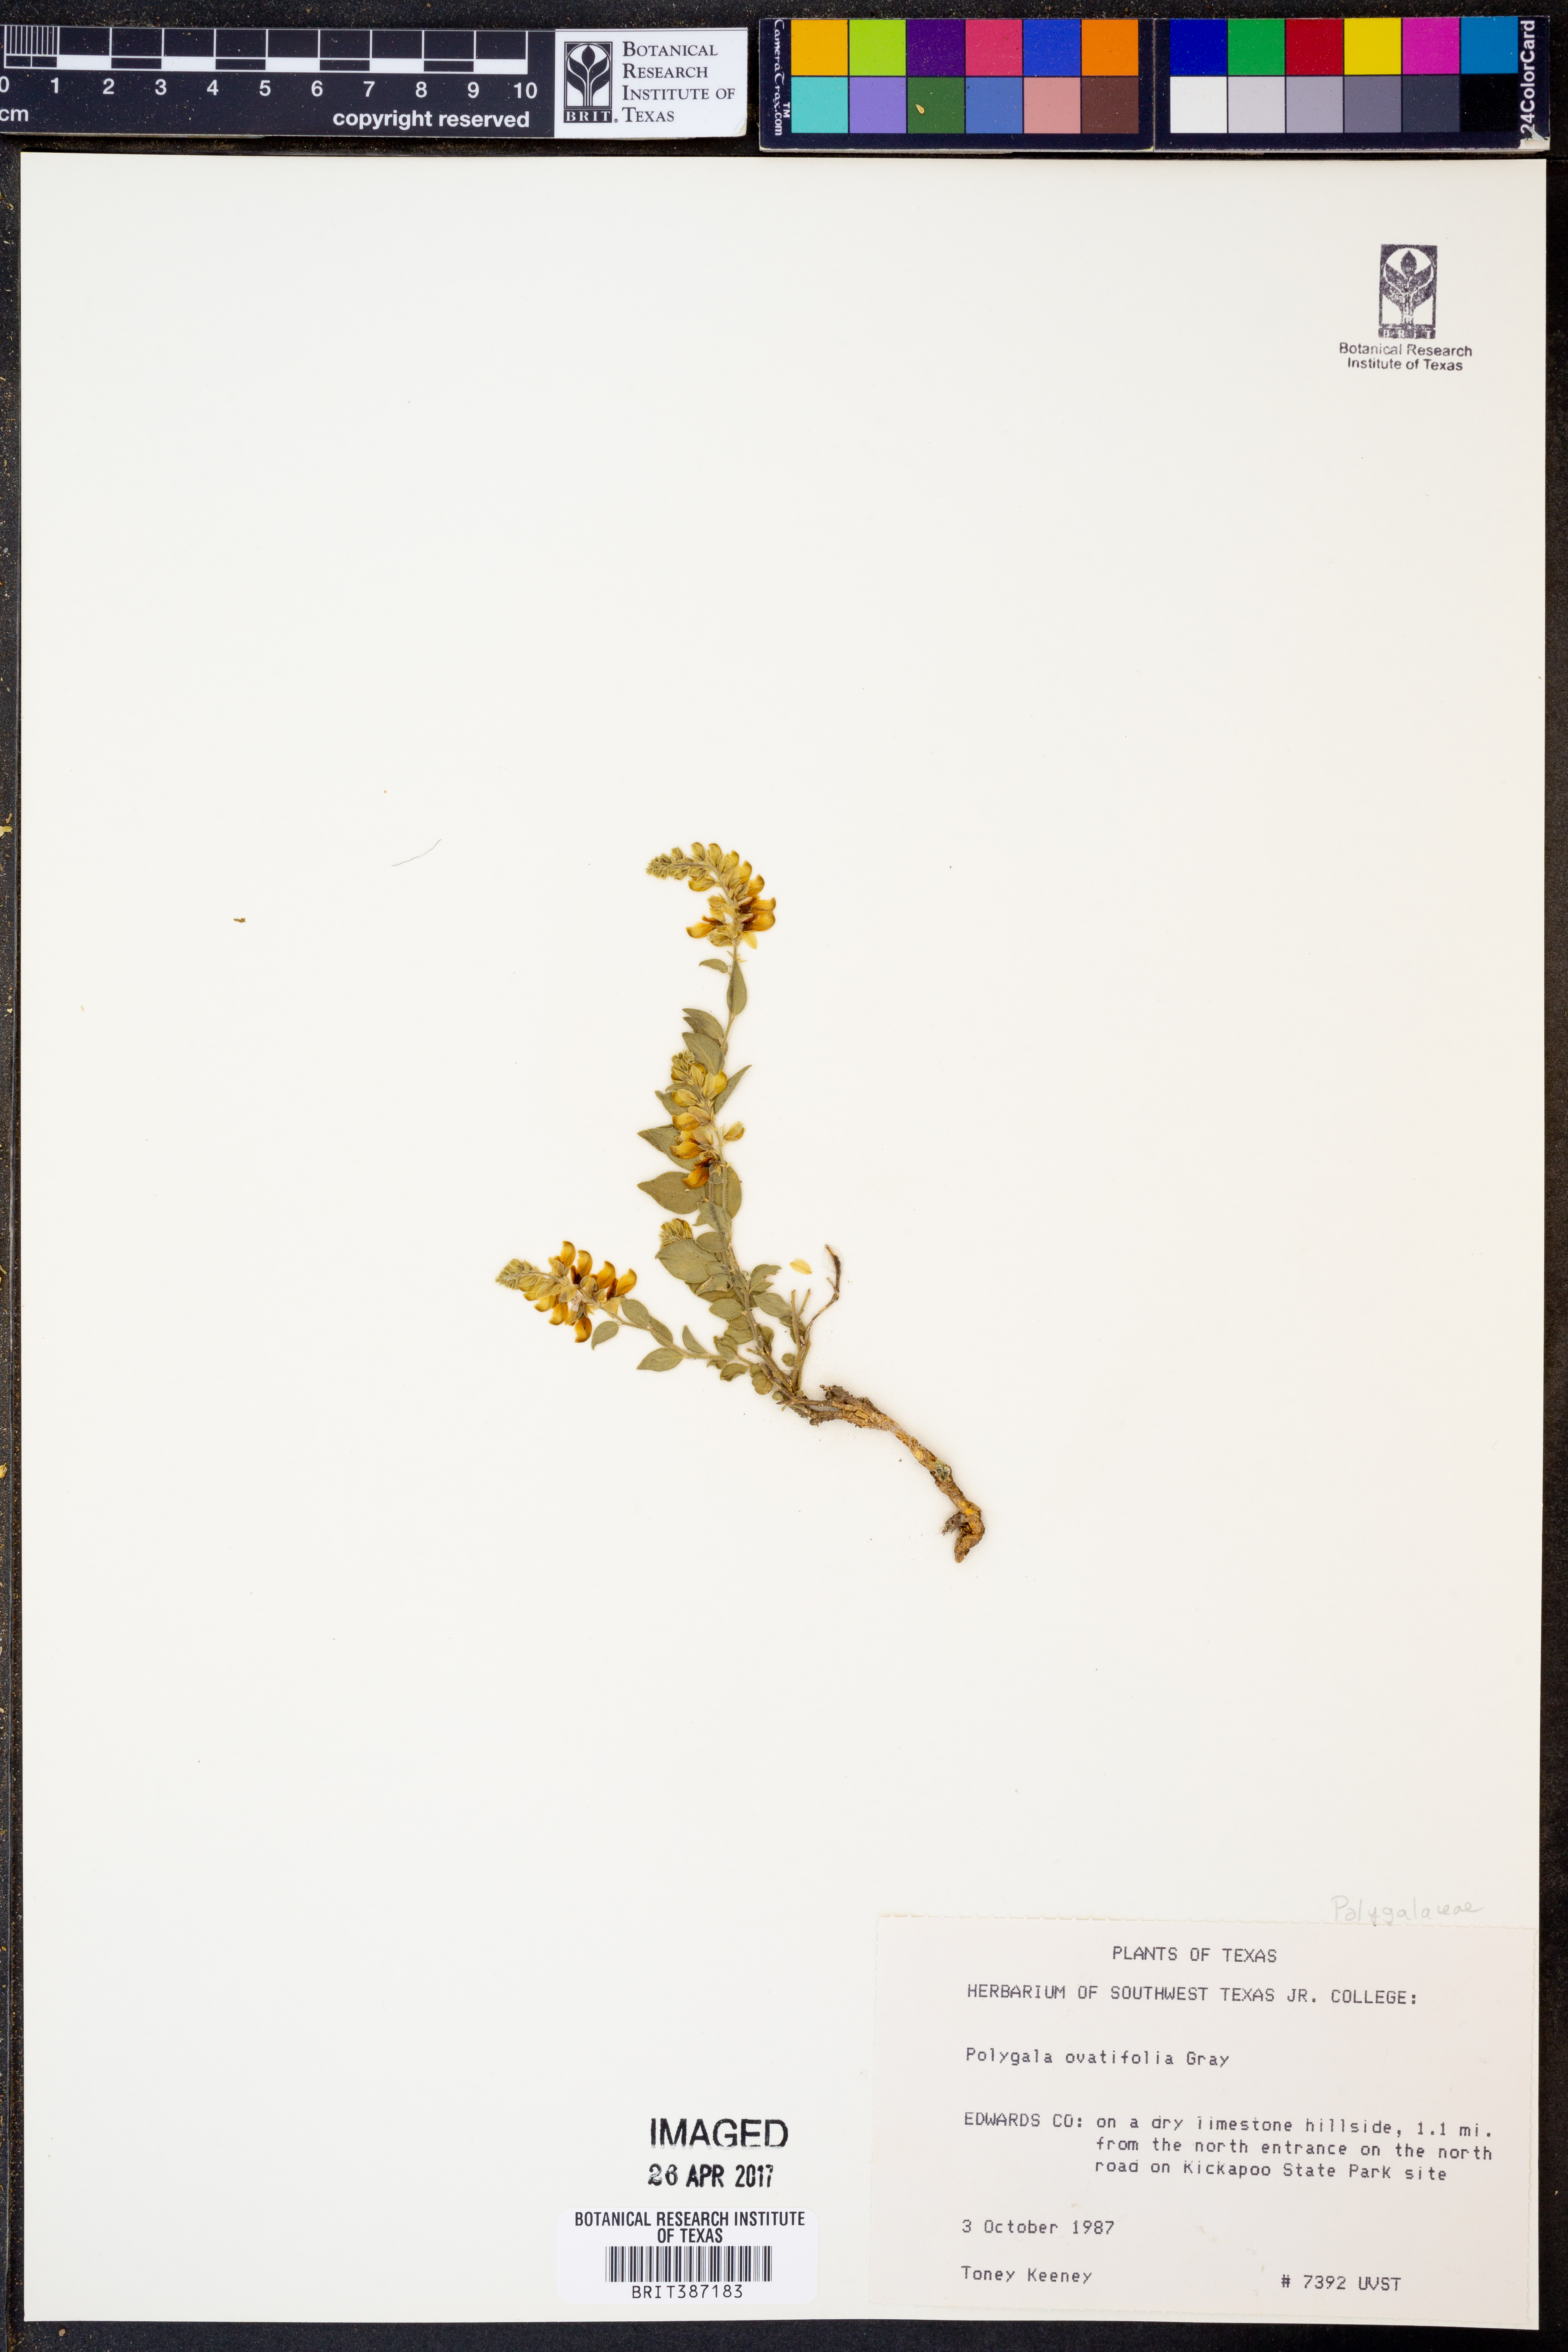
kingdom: Plantae
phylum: Tracheophyta
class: Magnoliopsida
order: Fabales
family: Polygalaceae
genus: Hebecarpa
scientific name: Hebecarpa ovatifolia
